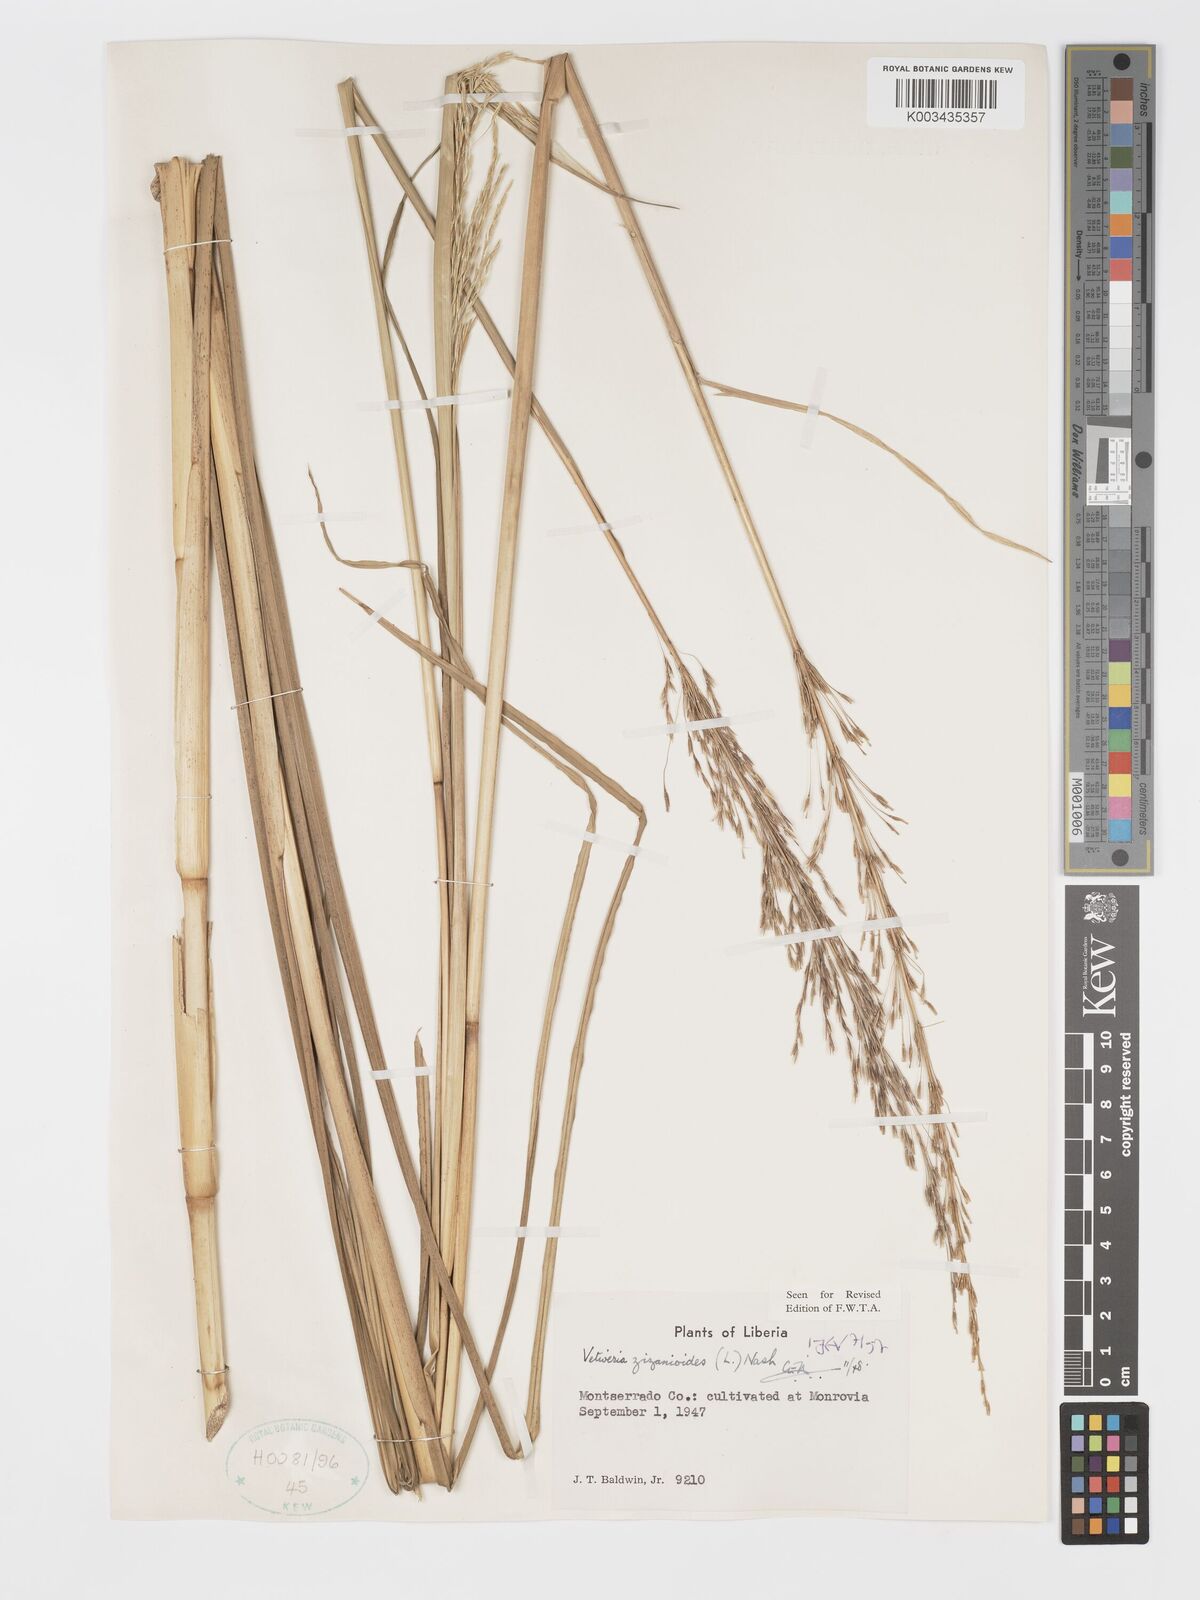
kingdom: Plantae
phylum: Tracheophyta
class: Liliopsida
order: Poales
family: Poaceae
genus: Chrysopogon
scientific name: Chrysopogon zizanioides
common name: False beardgrass
